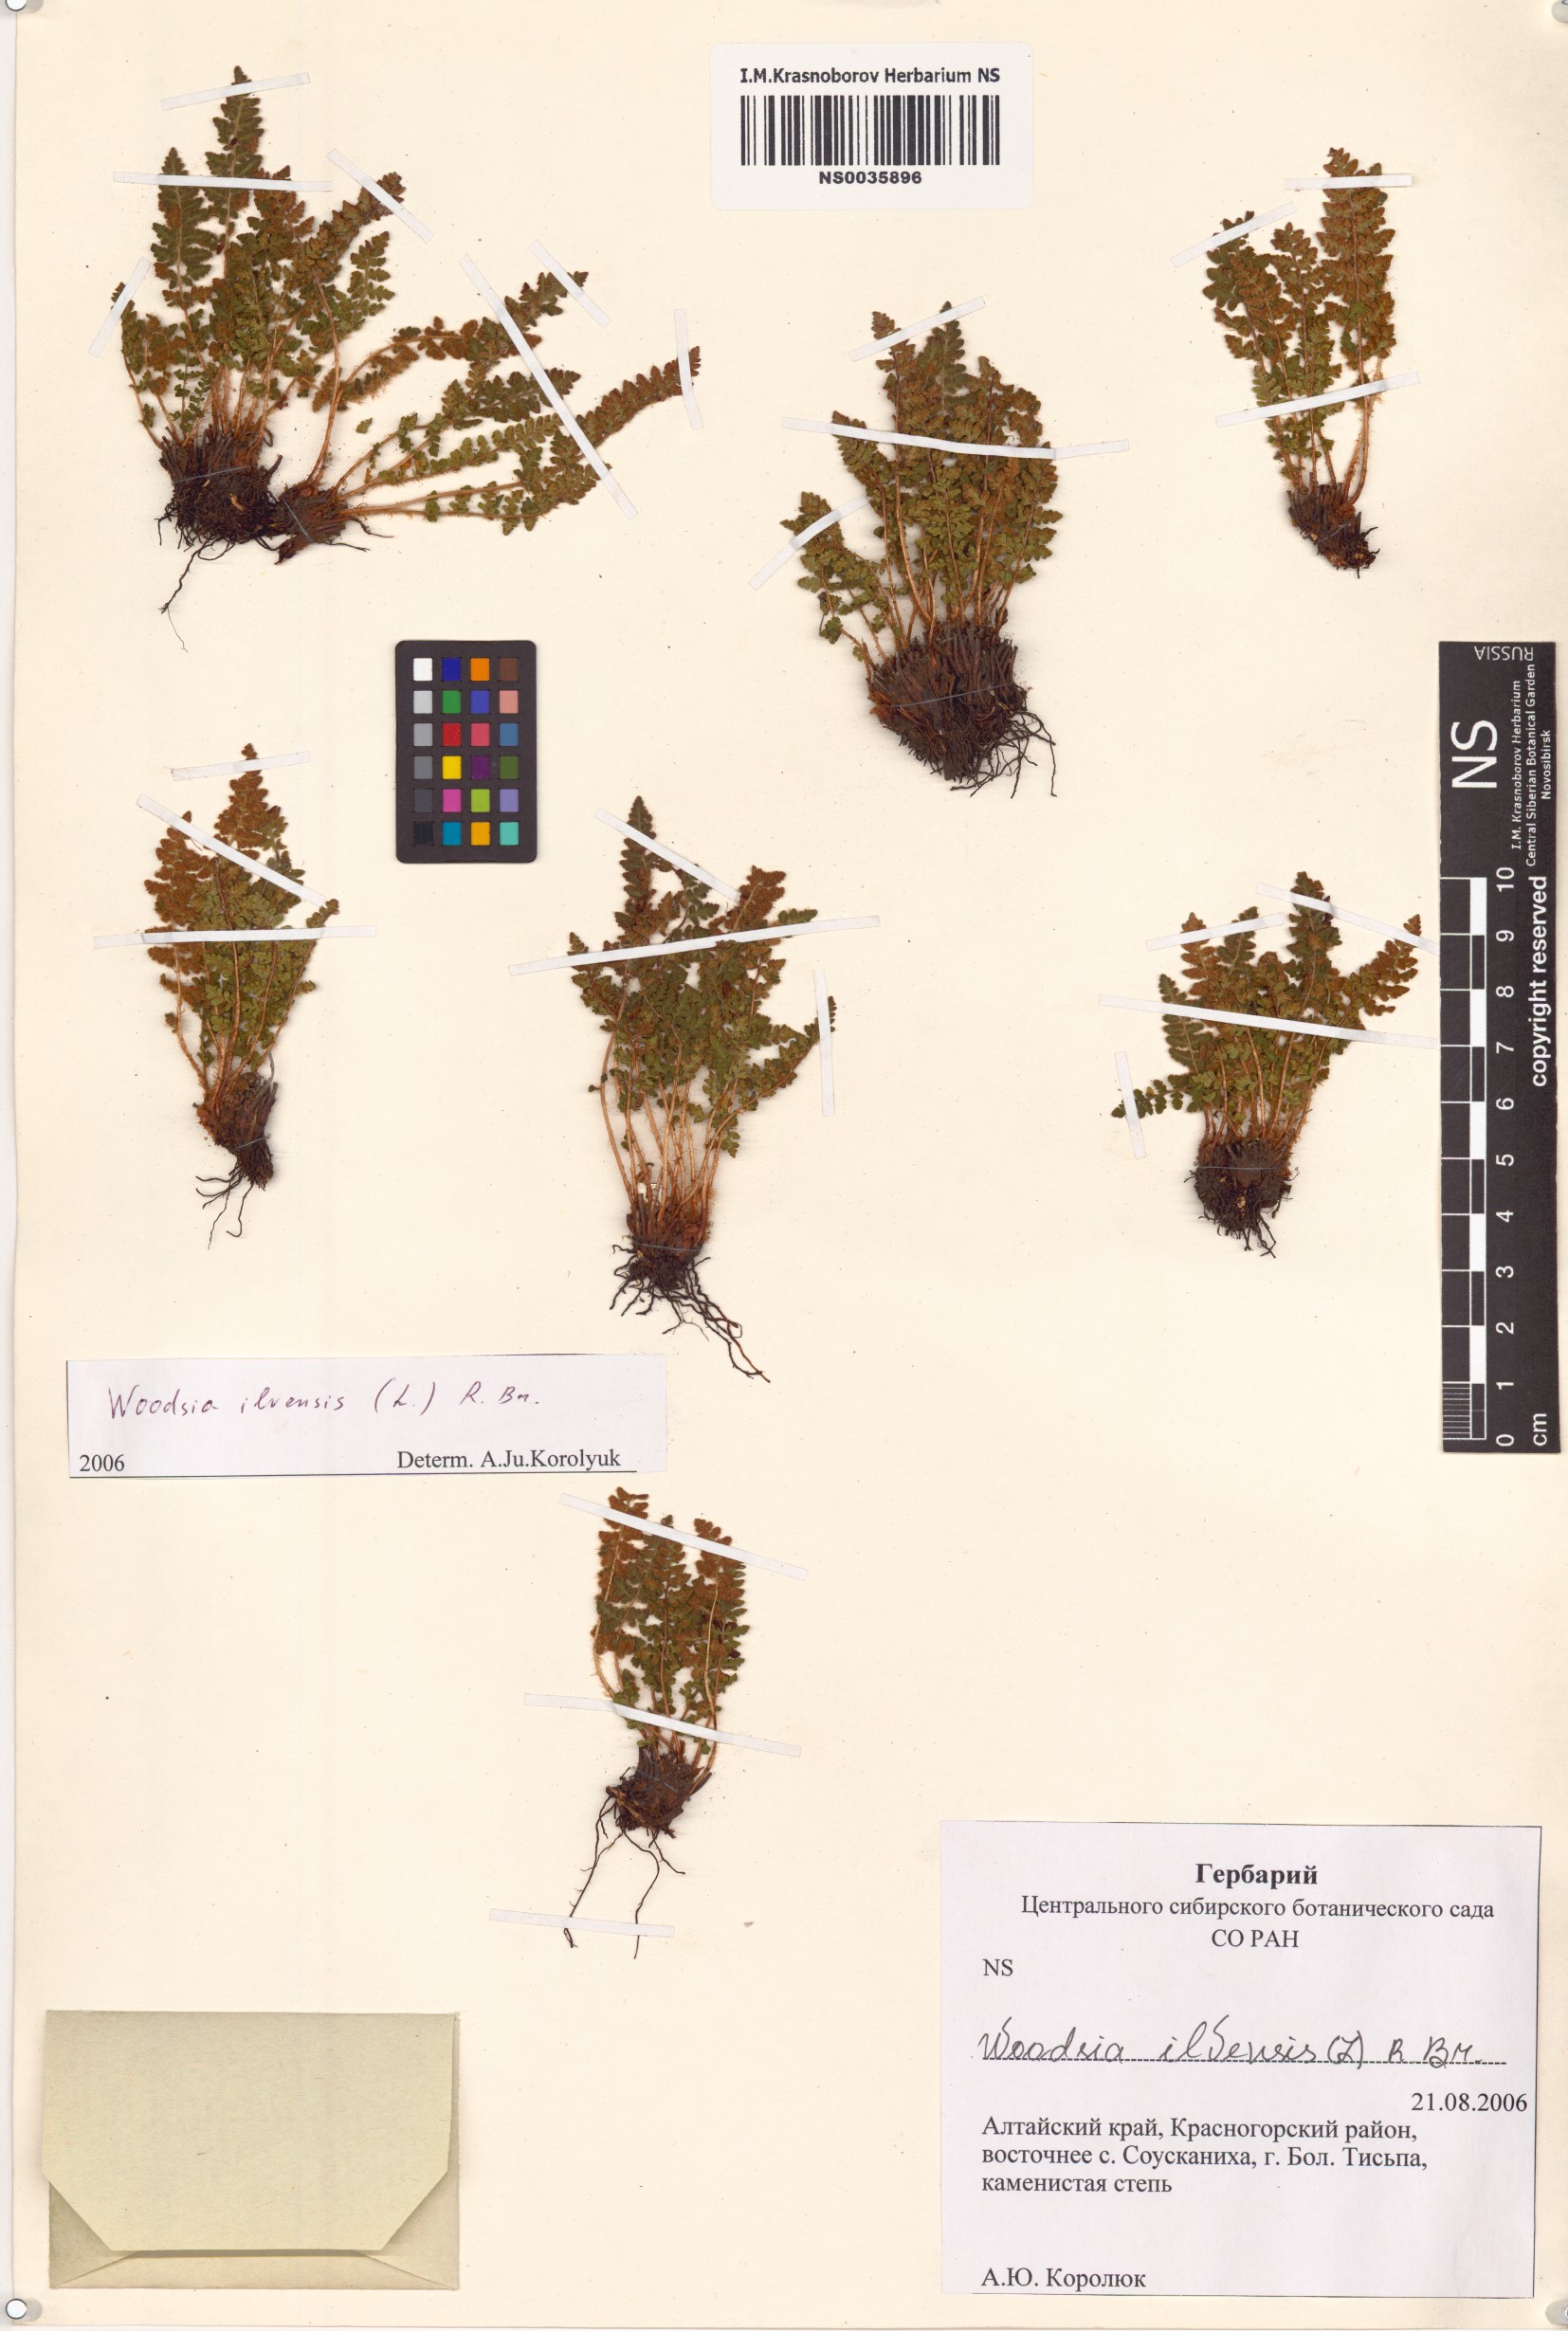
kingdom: Plantae
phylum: Tracheophyta
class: Polypodiopsida
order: Polypodiales
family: Woodsiaceae
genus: Woodsia
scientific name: Woodsia ilvensis
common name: Fragrant woodsia
